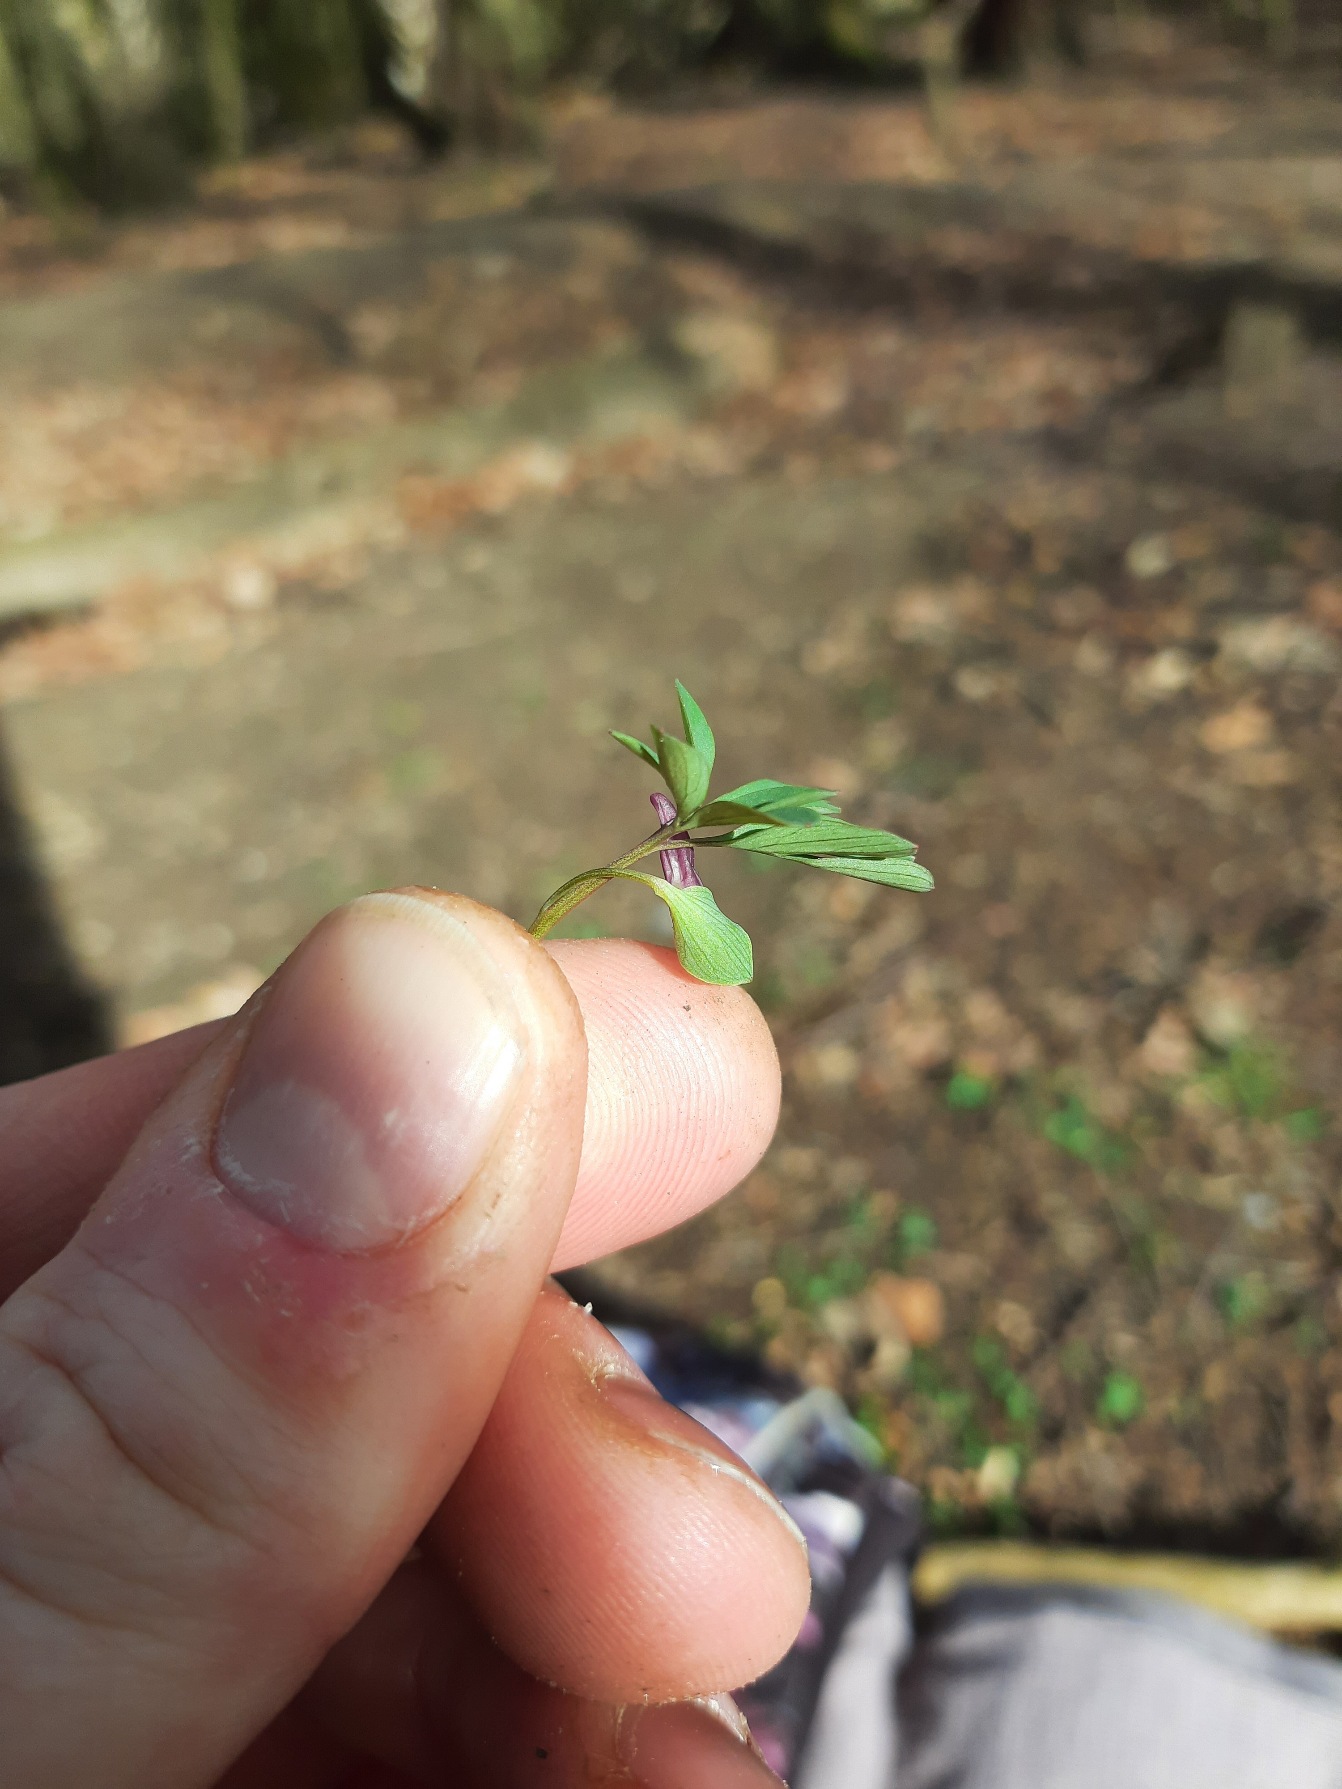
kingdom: Plantae
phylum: Tracheophyta
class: Magnoliopsida
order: Ranunculales
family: Papaveraceae
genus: Corydalis
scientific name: Corydalis intermedia
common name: Liden lærkespore
